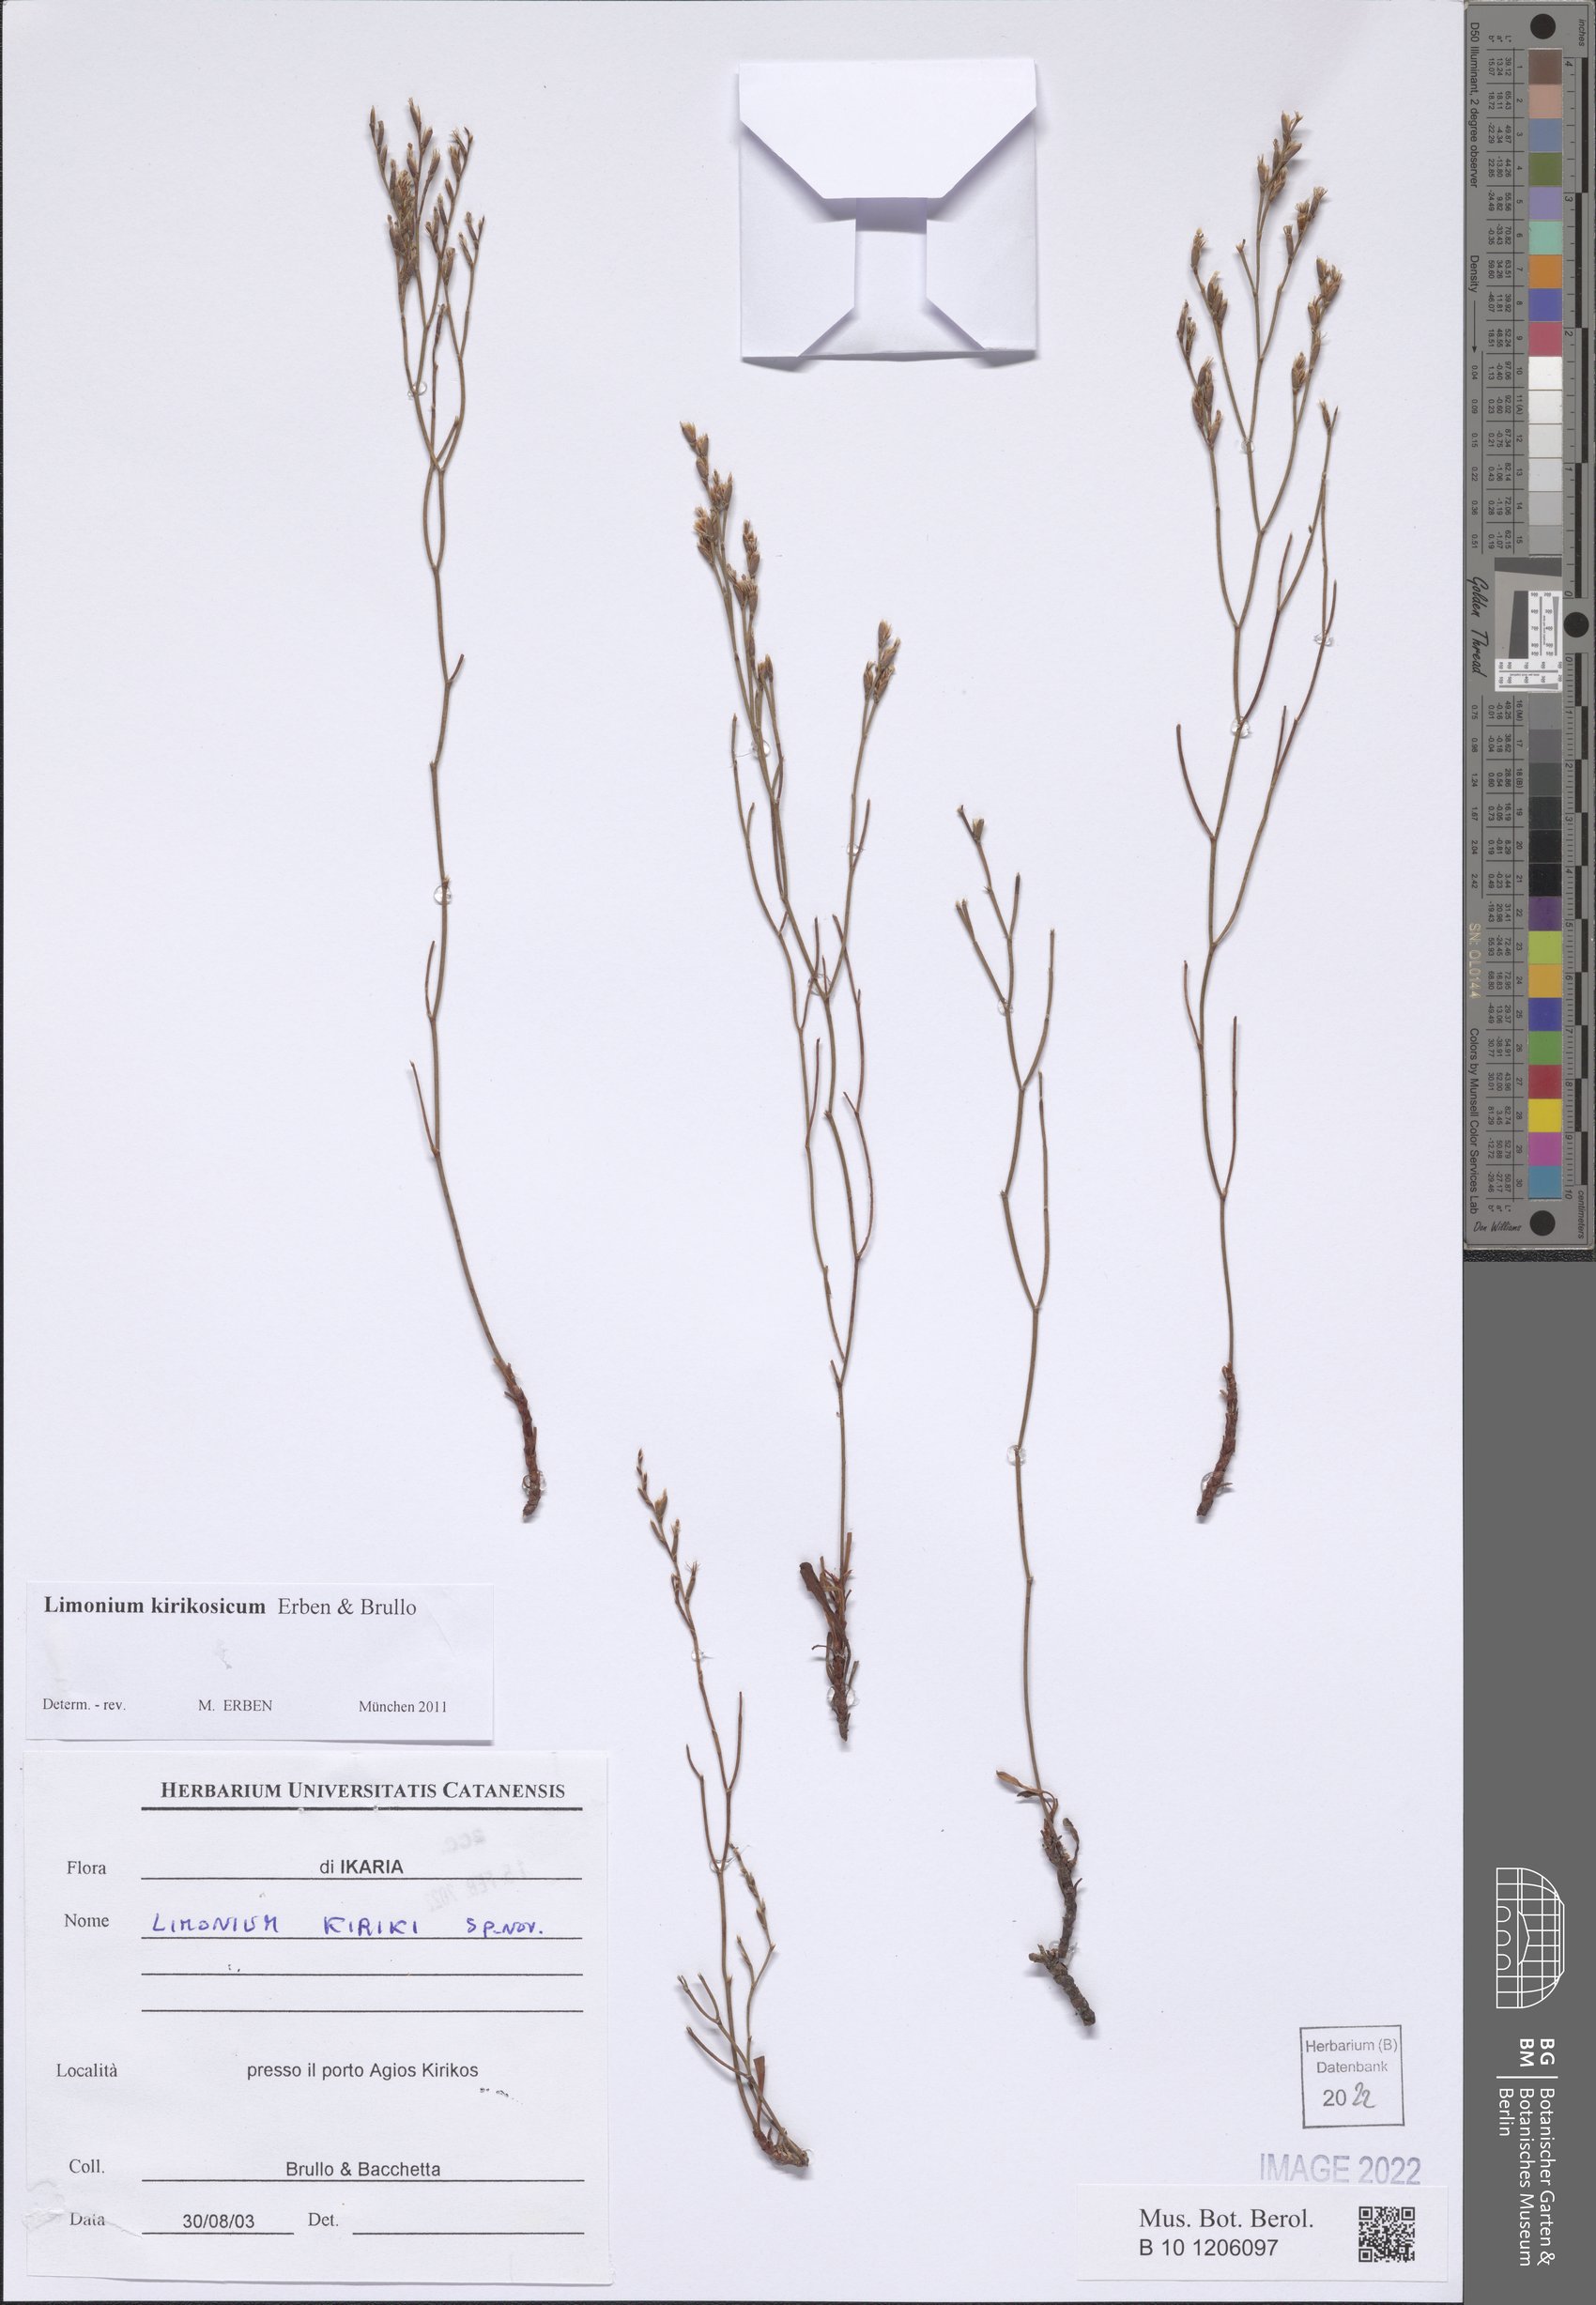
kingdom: Plantae
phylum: Tracheophyta
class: Magnoliopsida
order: Caryophyllales
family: Plumbaginaceae
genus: Limonium
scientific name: Limonium kirikosicum
